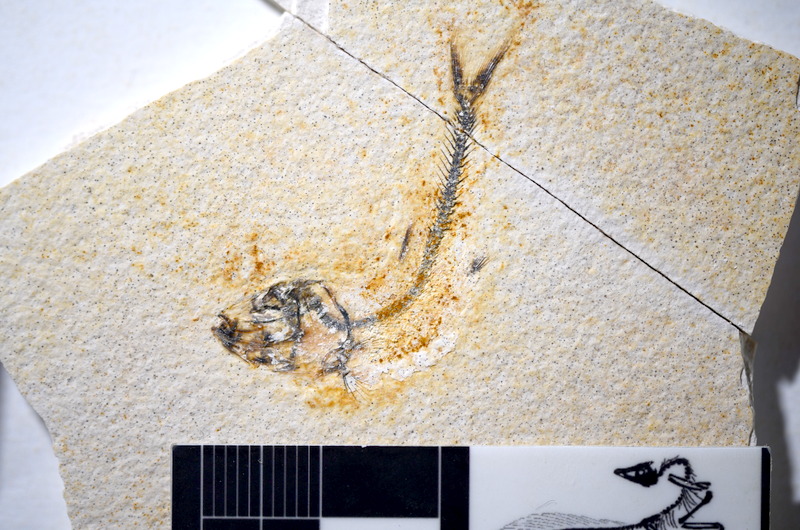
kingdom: Animalia
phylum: Chordata
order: Salmoniformes
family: Orthogonikleithridae
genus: Orthogonikleithrus
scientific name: Orthogonikleithrus hoelli
